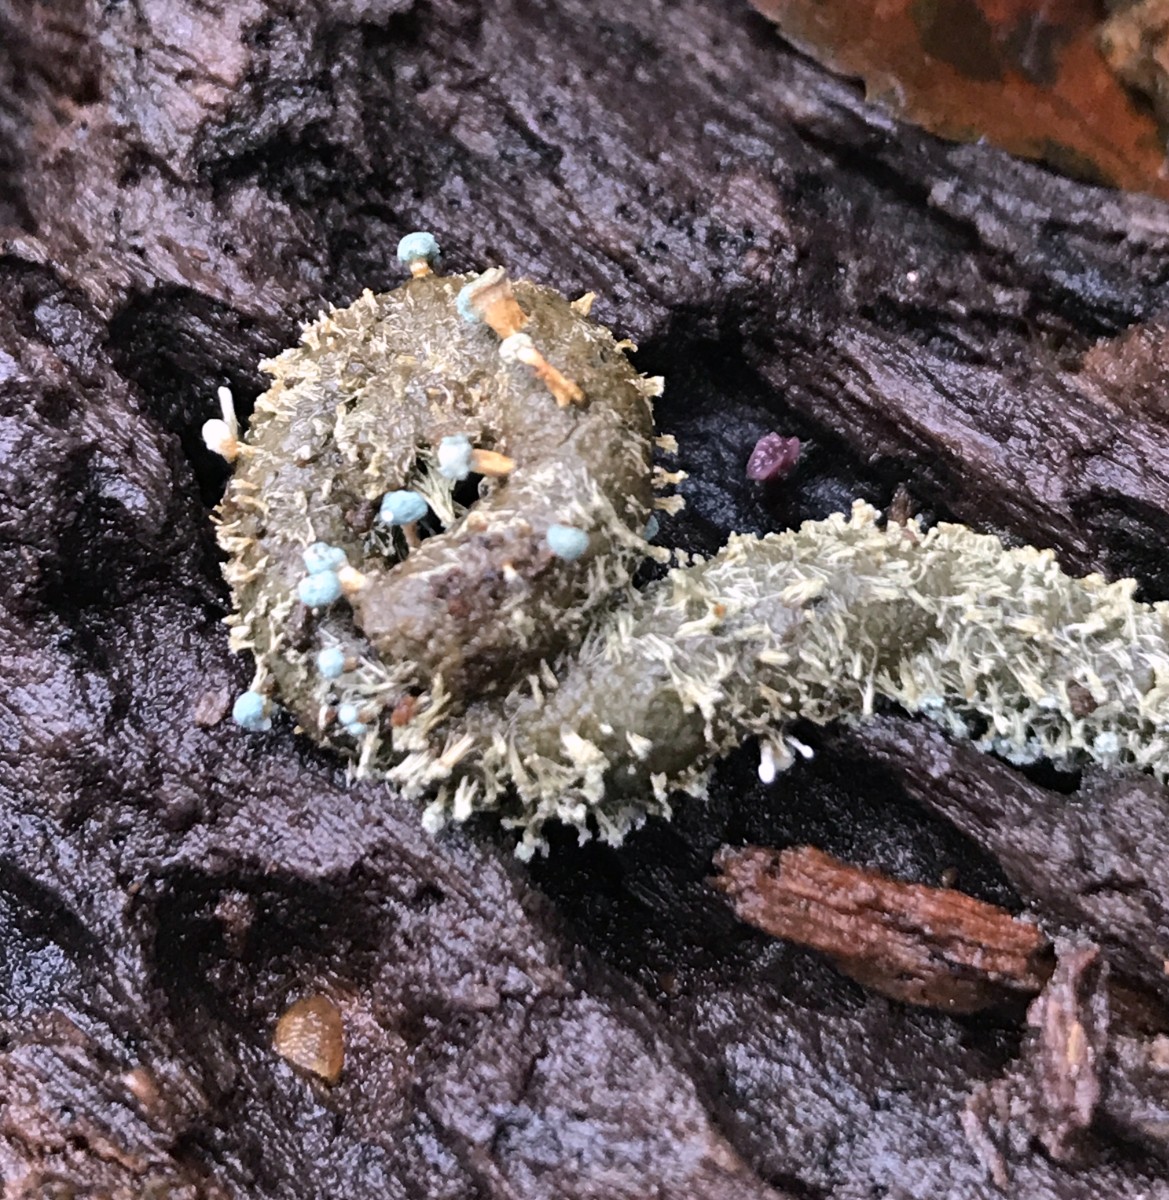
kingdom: Fungi
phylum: Ascomycota
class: Eurotiomycetes
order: Eurotiales
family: Aspergillaceae
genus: Penicillium
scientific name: Penicillium vulpinum
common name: kølle-penselskimmel
